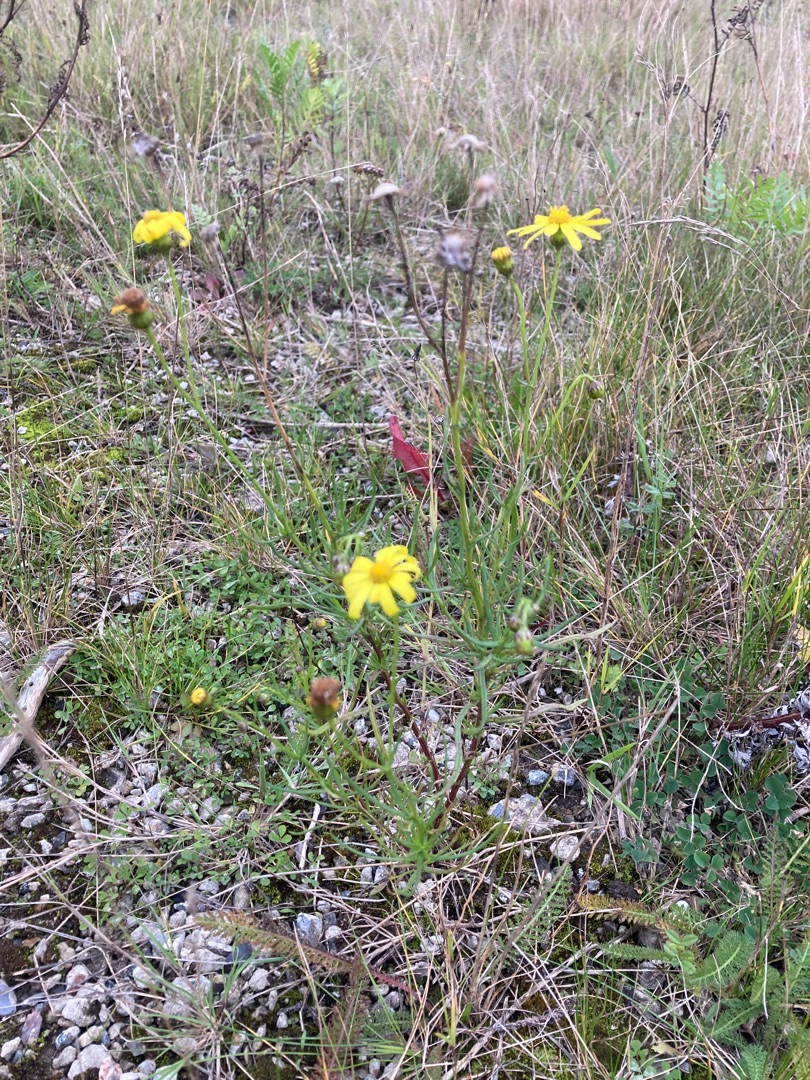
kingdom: Plantae
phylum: Tracheophyta
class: Magnoliopsida
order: Asterales
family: Asteraceae
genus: Senecio
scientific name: Senecio inaequidens
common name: Smalbladet brandbæger
